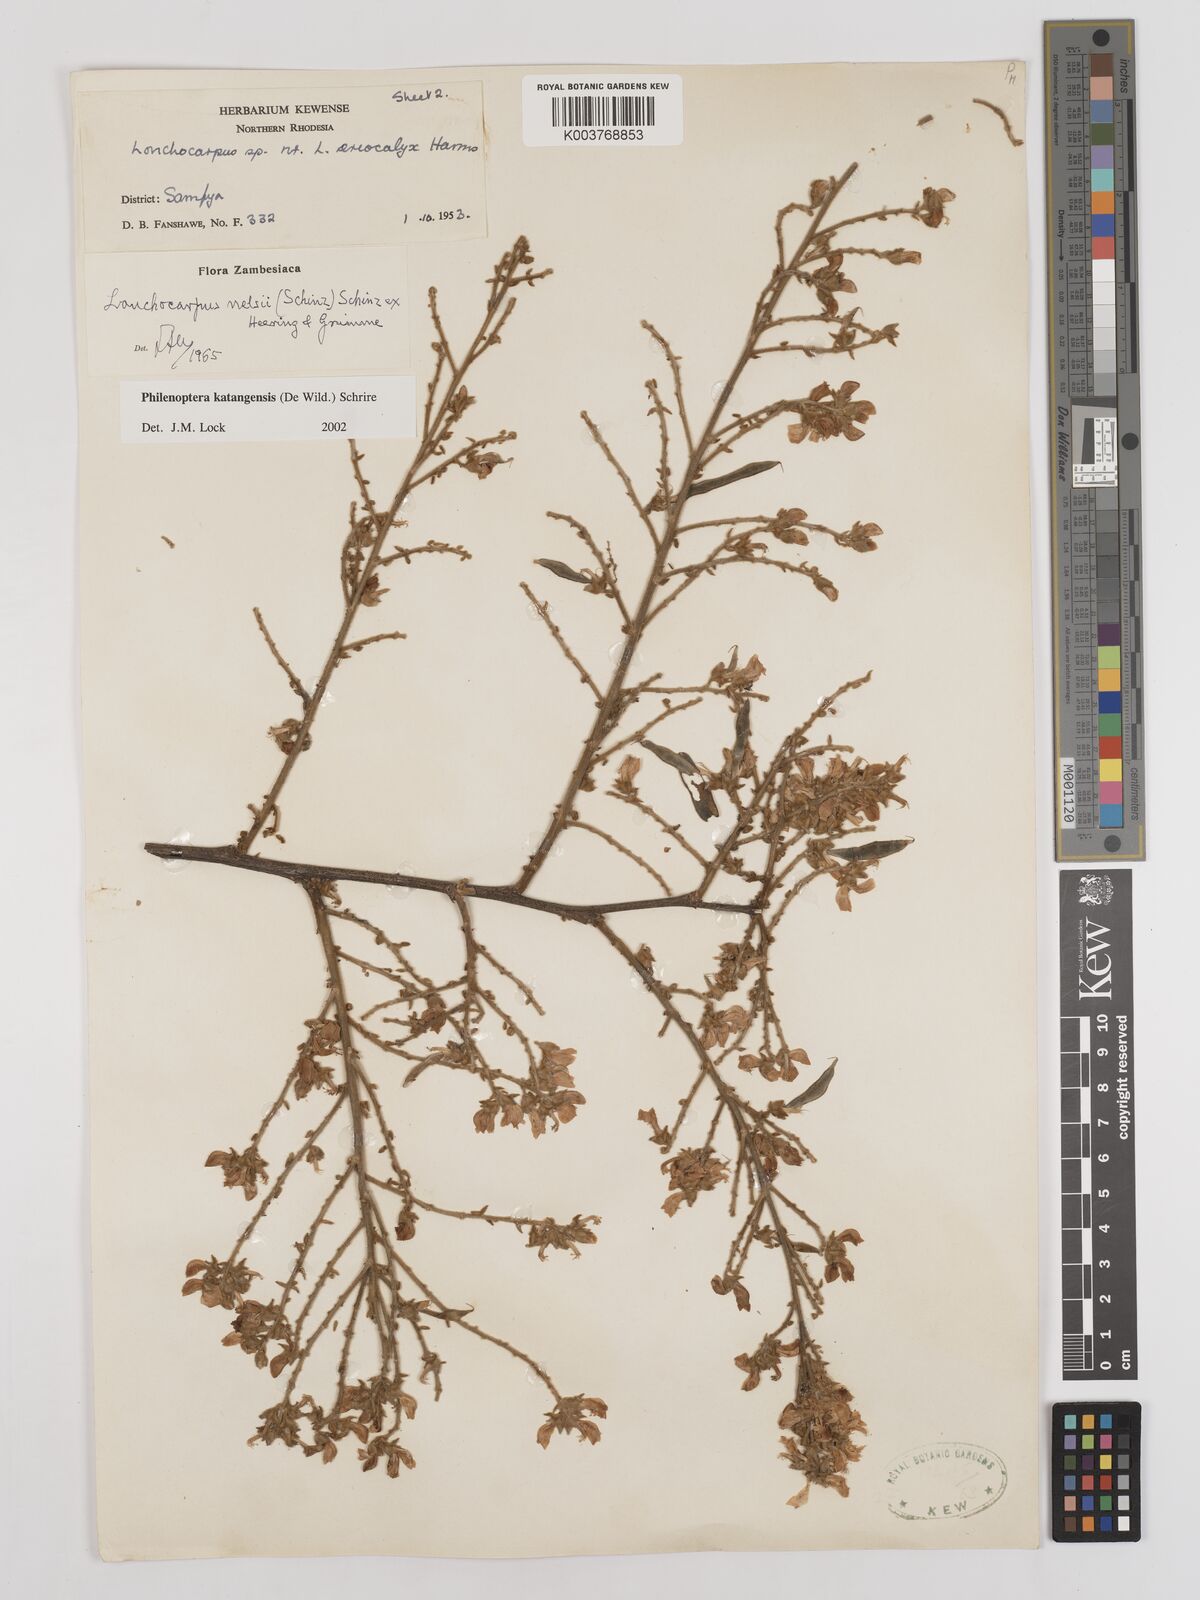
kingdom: Plantae
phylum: Tracheophyta
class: Magnoliopsida
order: Fabales
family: Fabaceae
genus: Philenoptera
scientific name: Philenoptera katangensis
